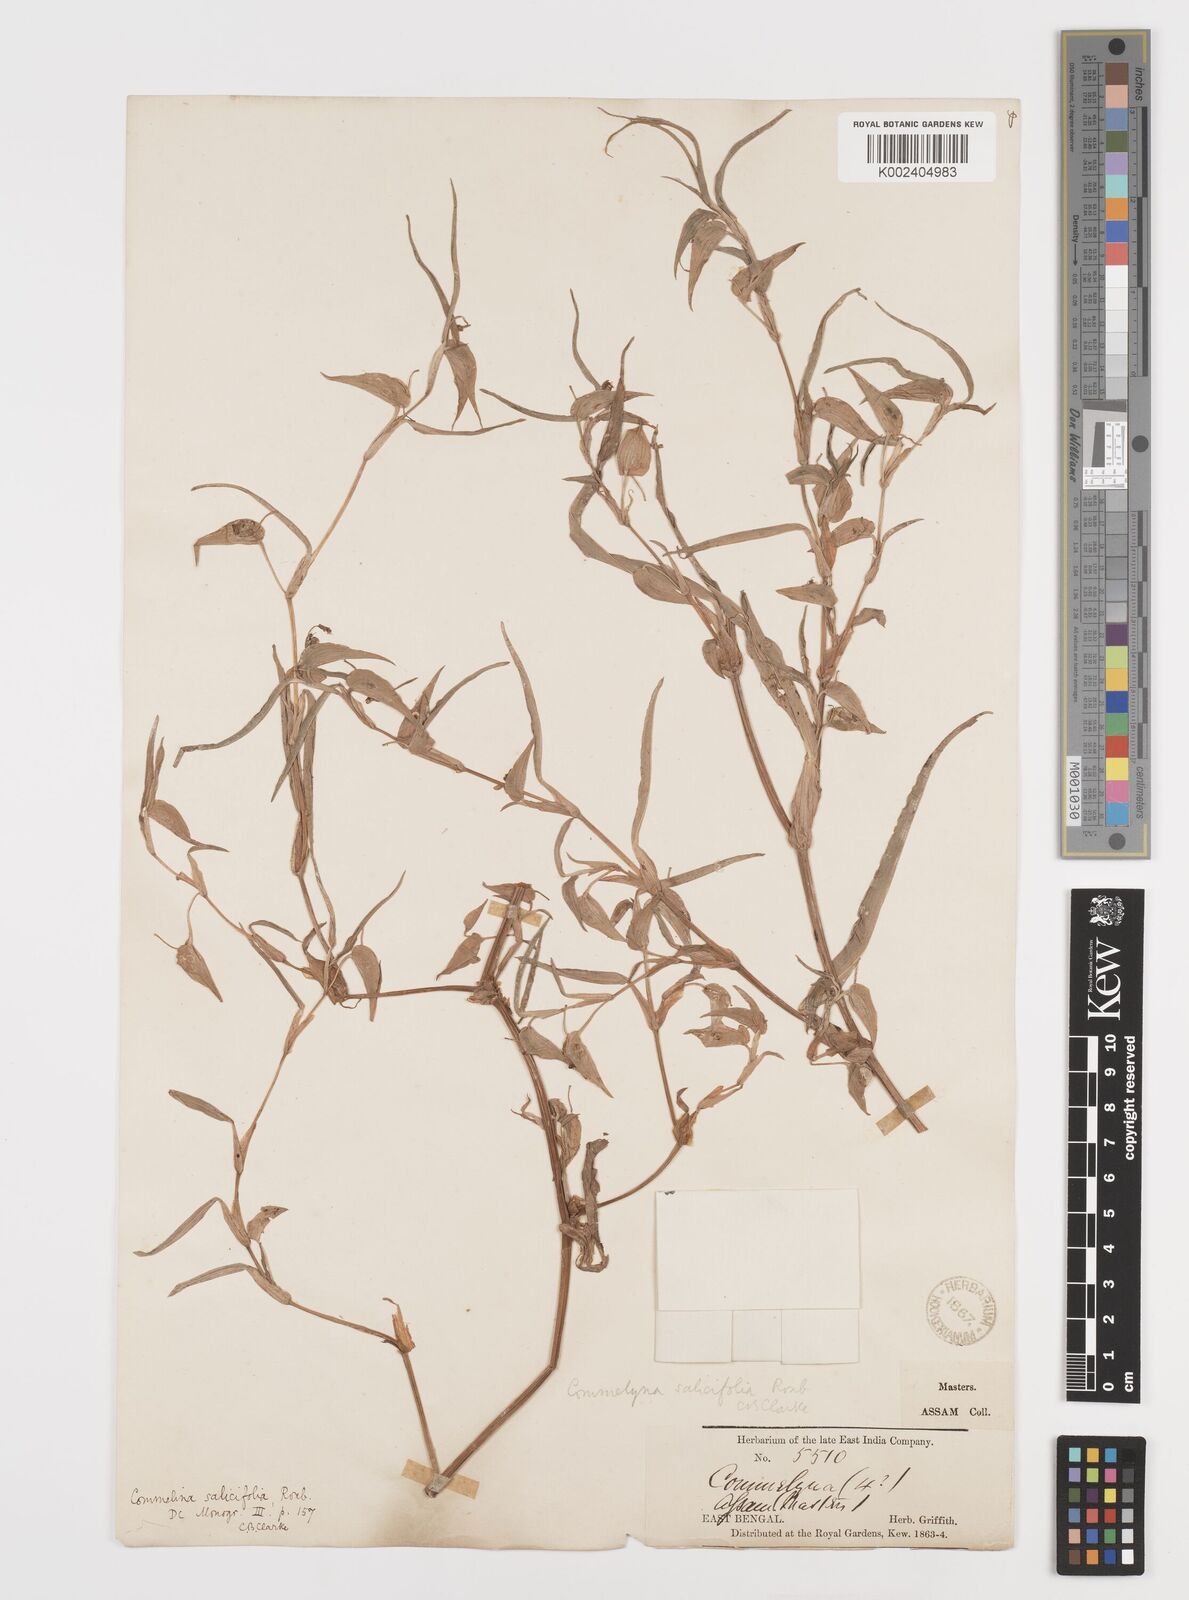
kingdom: Plantae
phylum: Tracheophyta
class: Liliopsida
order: Commelinales
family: Commelinaceae
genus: Commelina
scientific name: Commelina undulata
